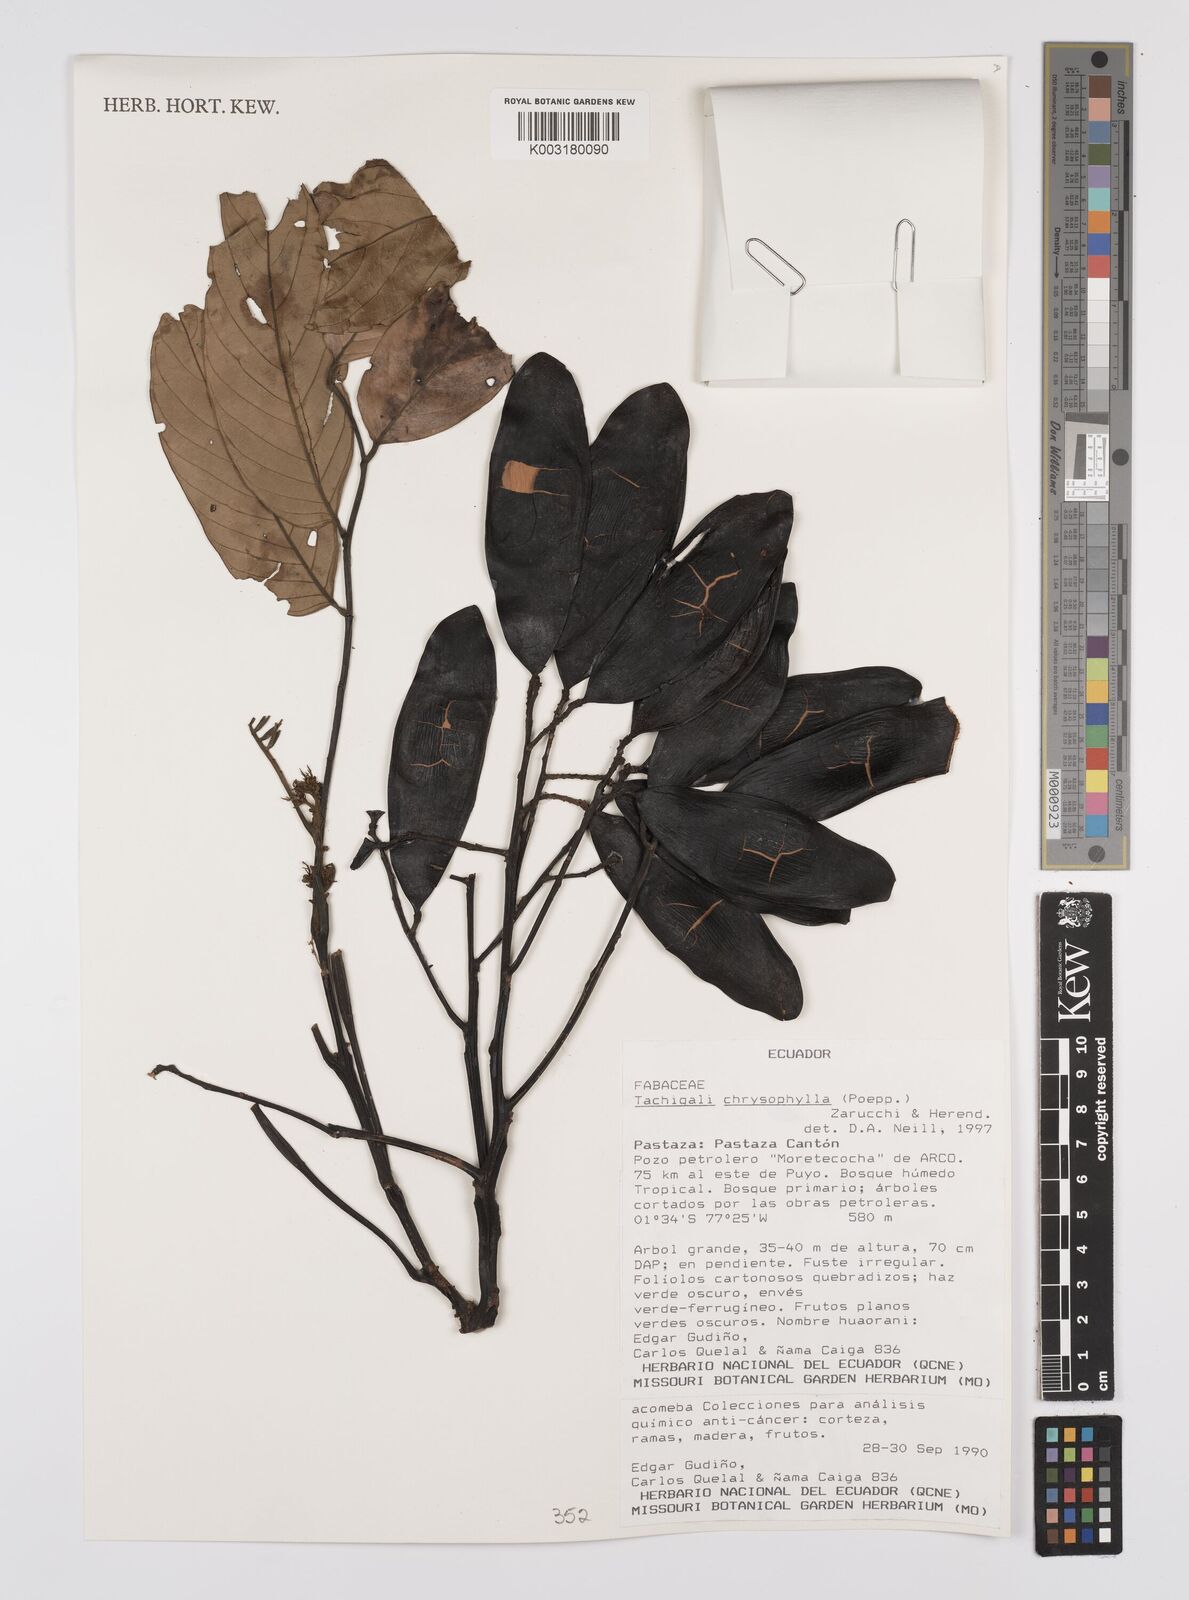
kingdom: Plantae
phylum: Tracheophyta
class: Magnoliopsida
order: Fabales
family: Fabaceae
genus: Tachigali
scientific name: Tachigali chrysophylla
